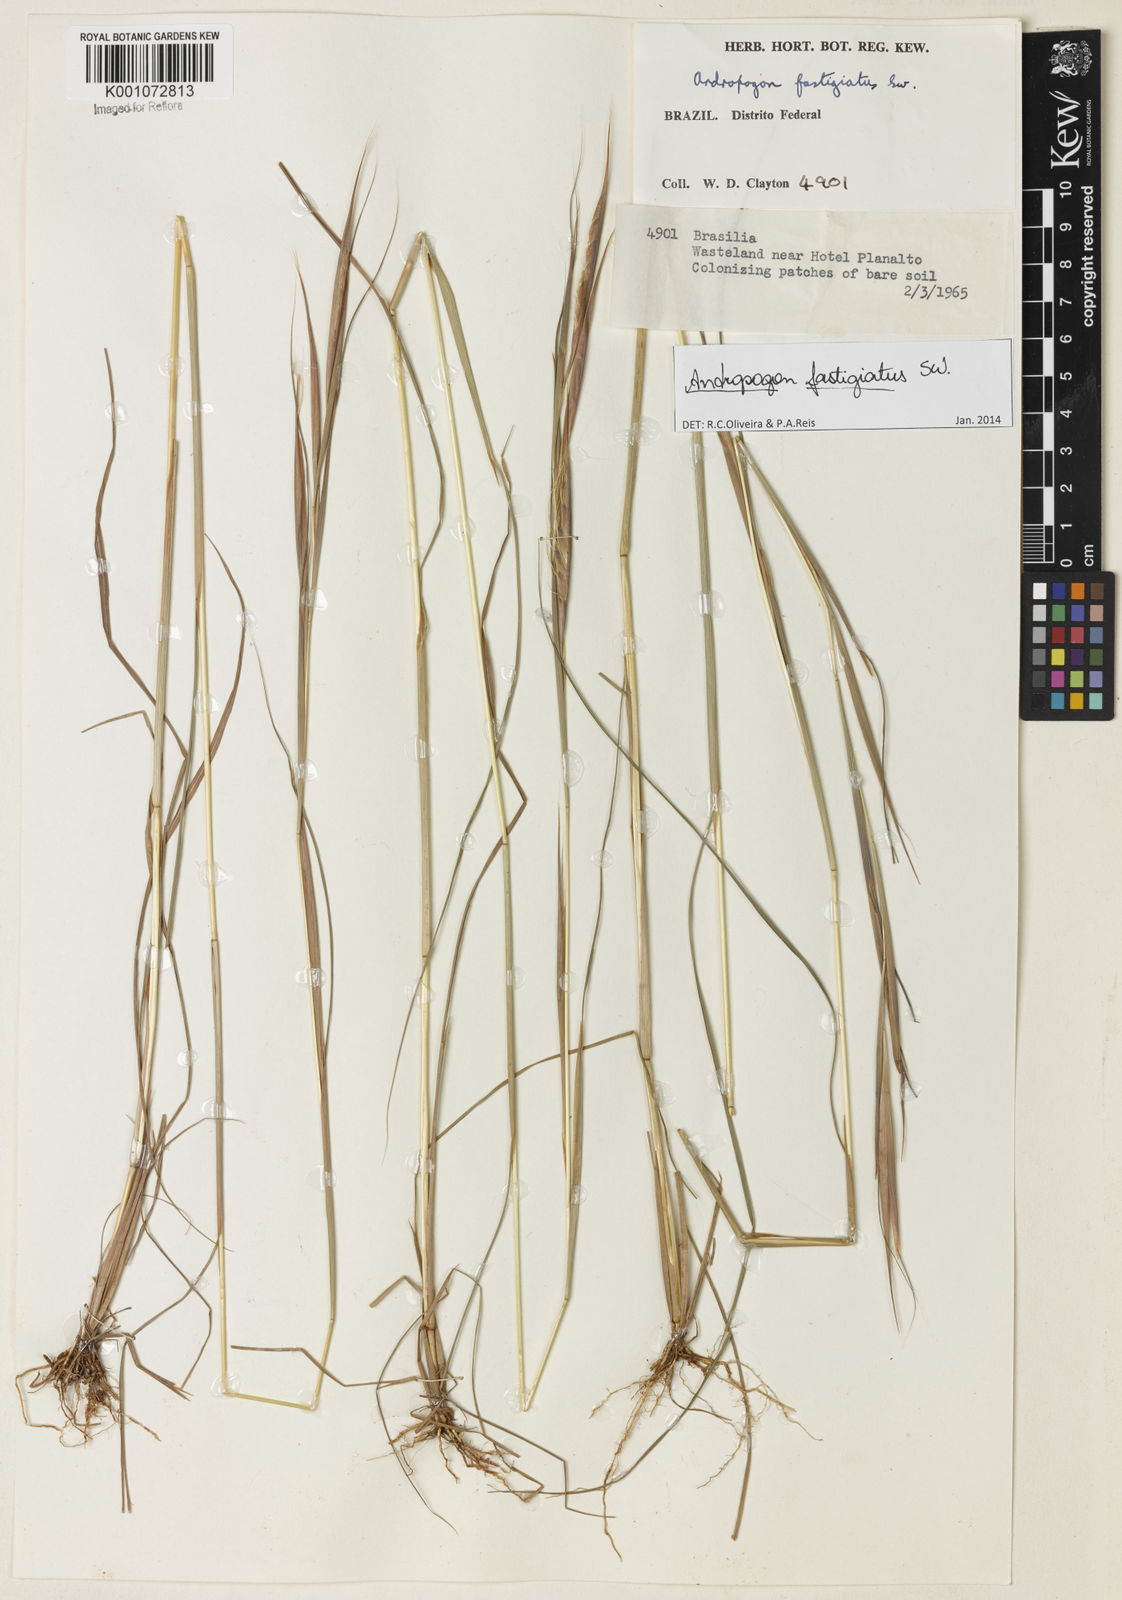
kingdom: Plantae
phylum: Tracheophyta
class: Liliopsida
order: Poales
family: Poaceae
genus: Diectomis
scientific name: Diectomis fastigiata
